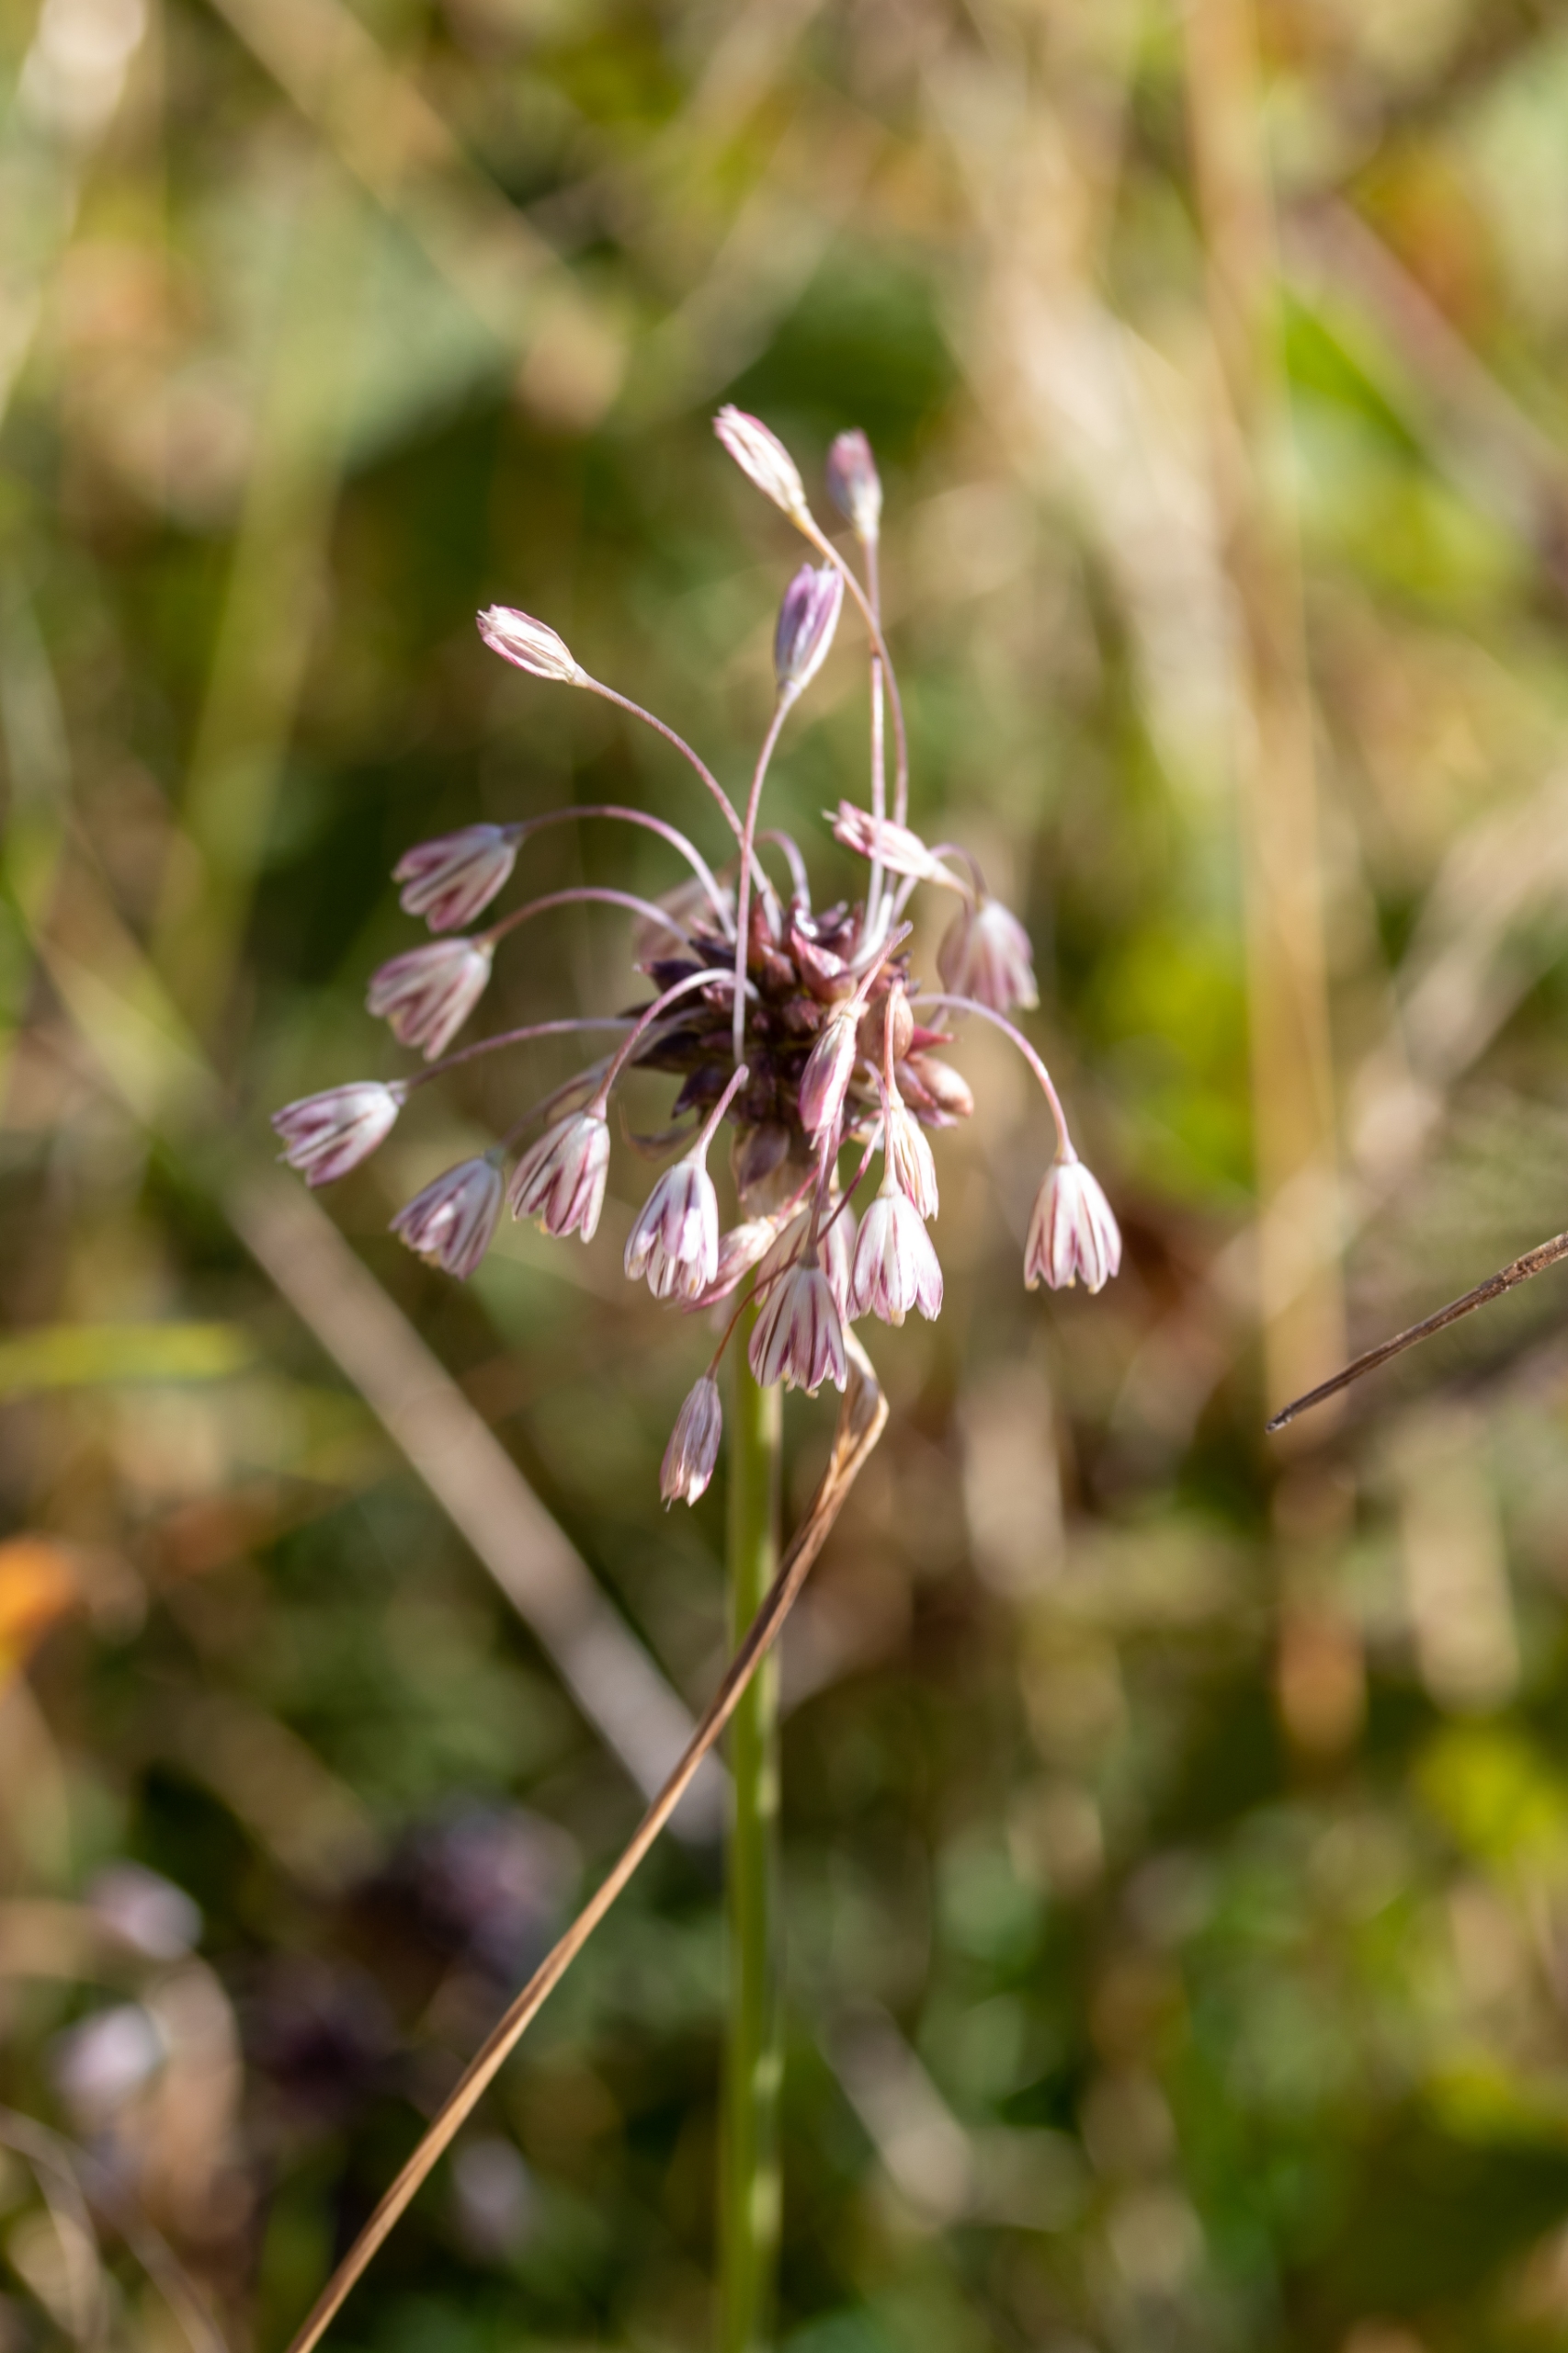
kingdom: Plantae
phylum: Tracheophyta
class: Liliopsida
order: Asparagales
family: Amaryllidaceae
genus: Allium
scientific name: Allium oleraceum
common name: Vild løg
